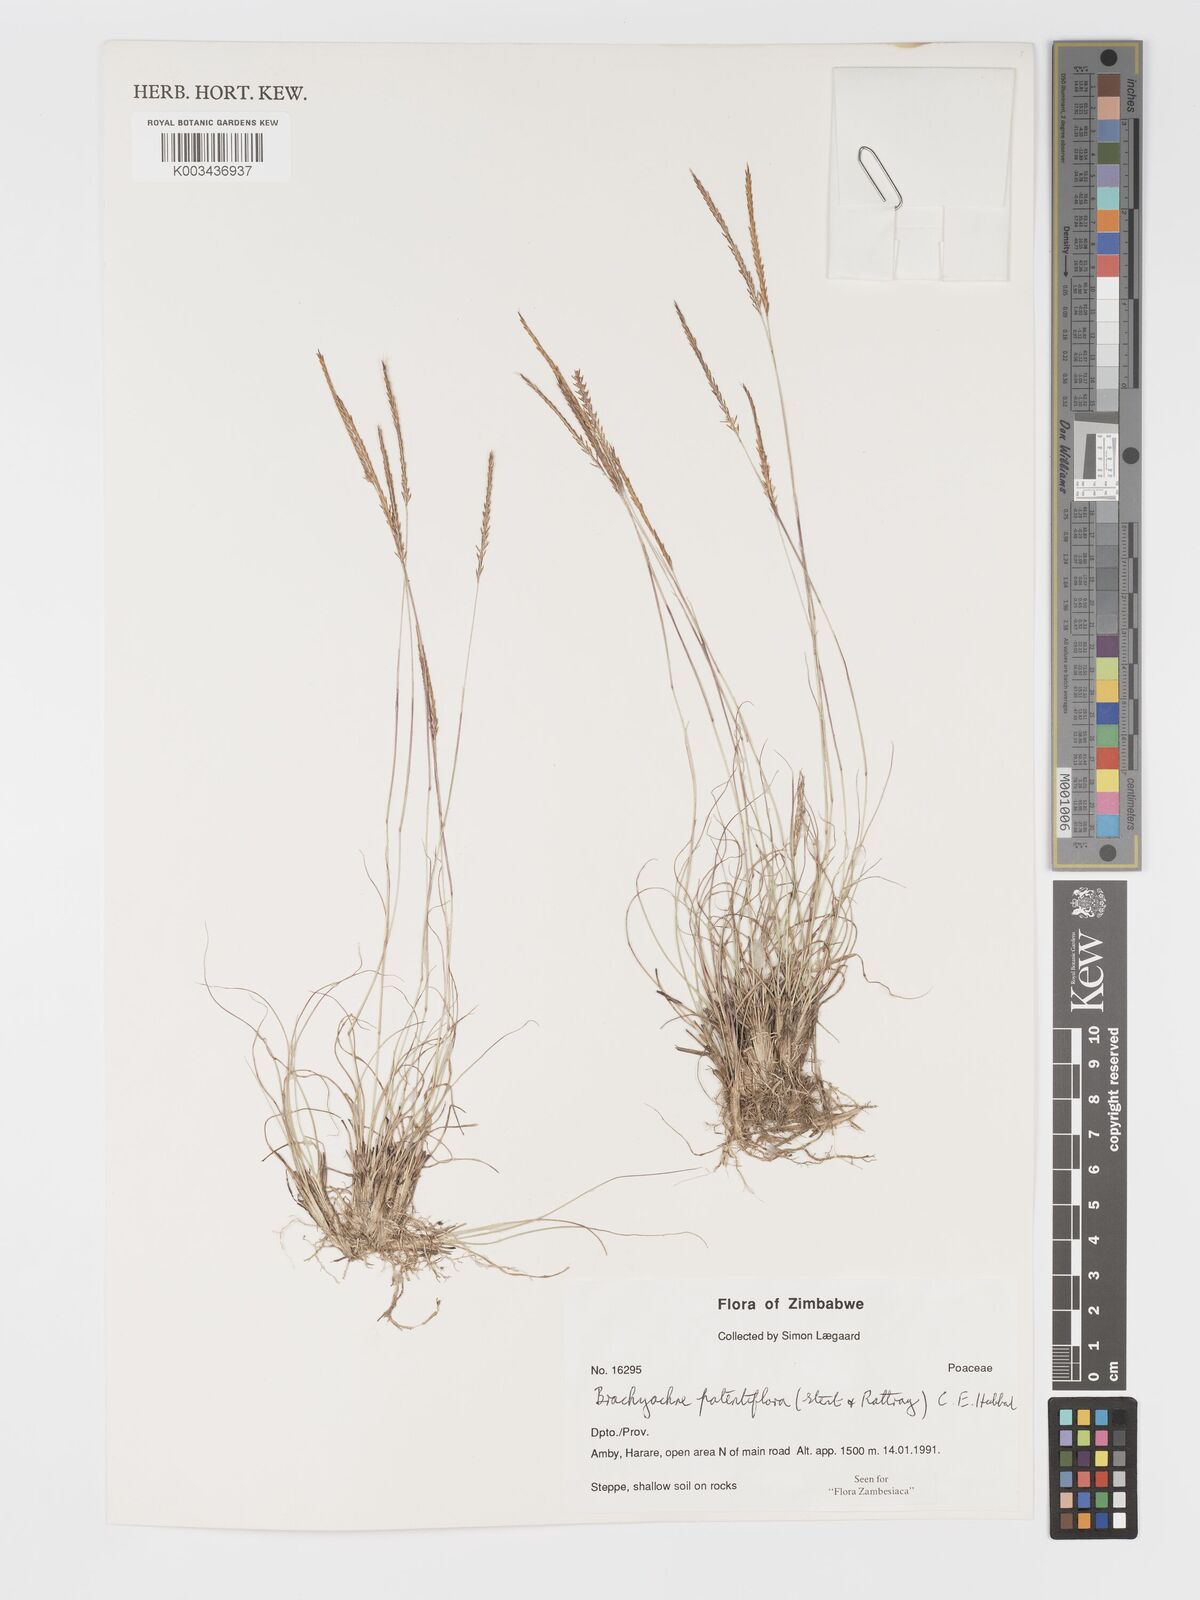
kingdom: Plantae
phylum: Tracheophyta
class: Liliopsida
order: Poales
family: Poaceae
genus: Micrachne
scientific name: Micrachne patentiflora
